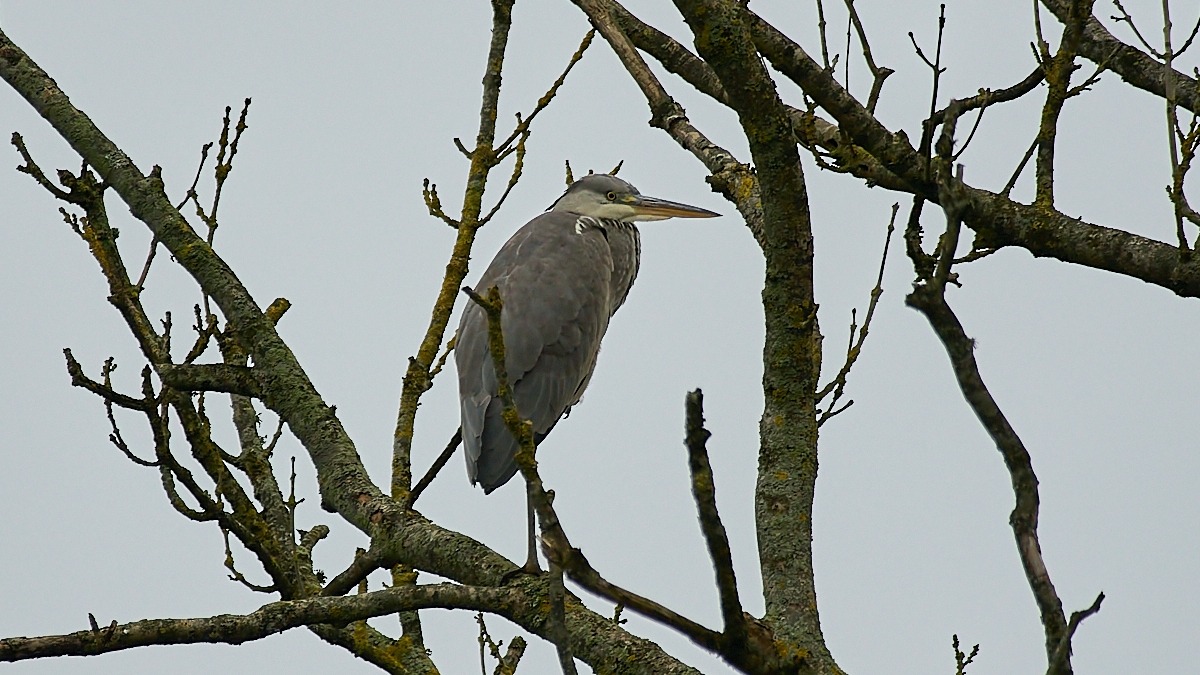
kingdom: Animalia
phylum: Chordata
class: Aves
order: Pelecaniformes
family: Ardeidae
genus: Ardea
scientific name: Ardea cinerea
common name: Fiskehejre
